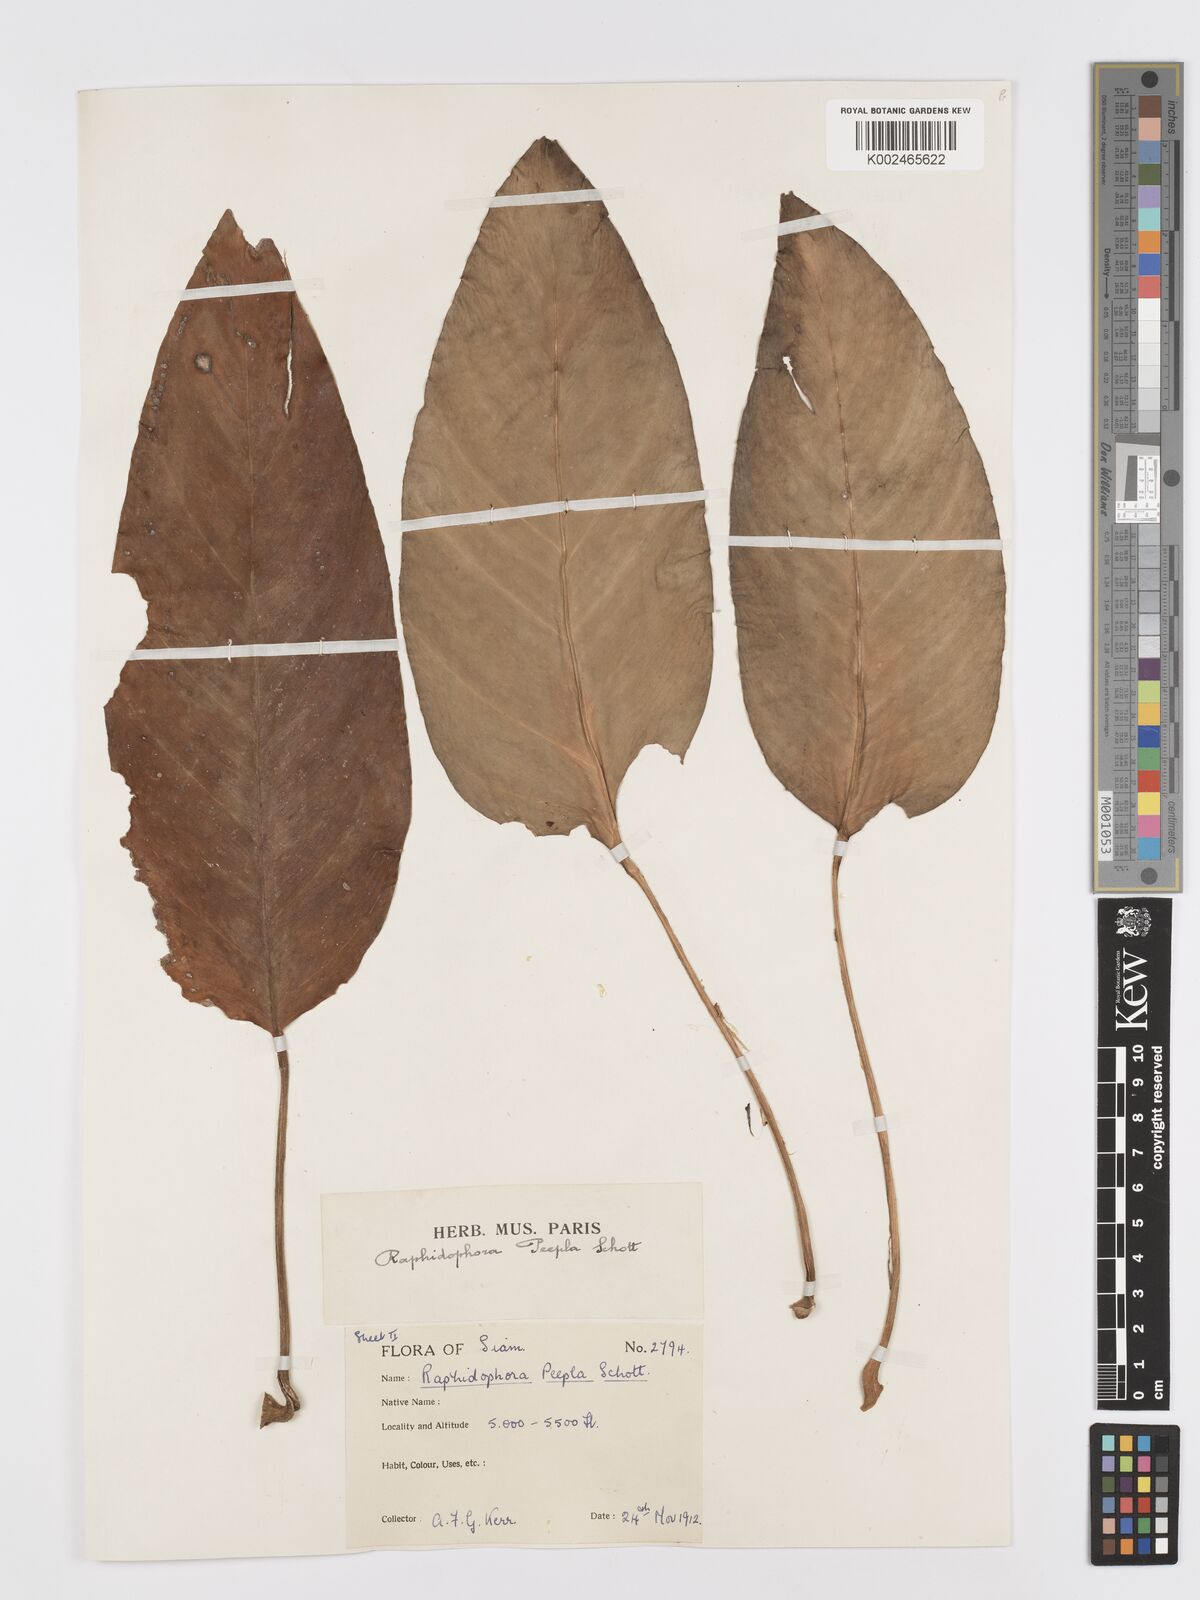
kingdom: Plantae
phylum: Tracheophyta
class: Liliopsida
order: Alismatales
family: Araceae
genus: Rhaphidophora
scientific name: Rhaphidophora peepla
